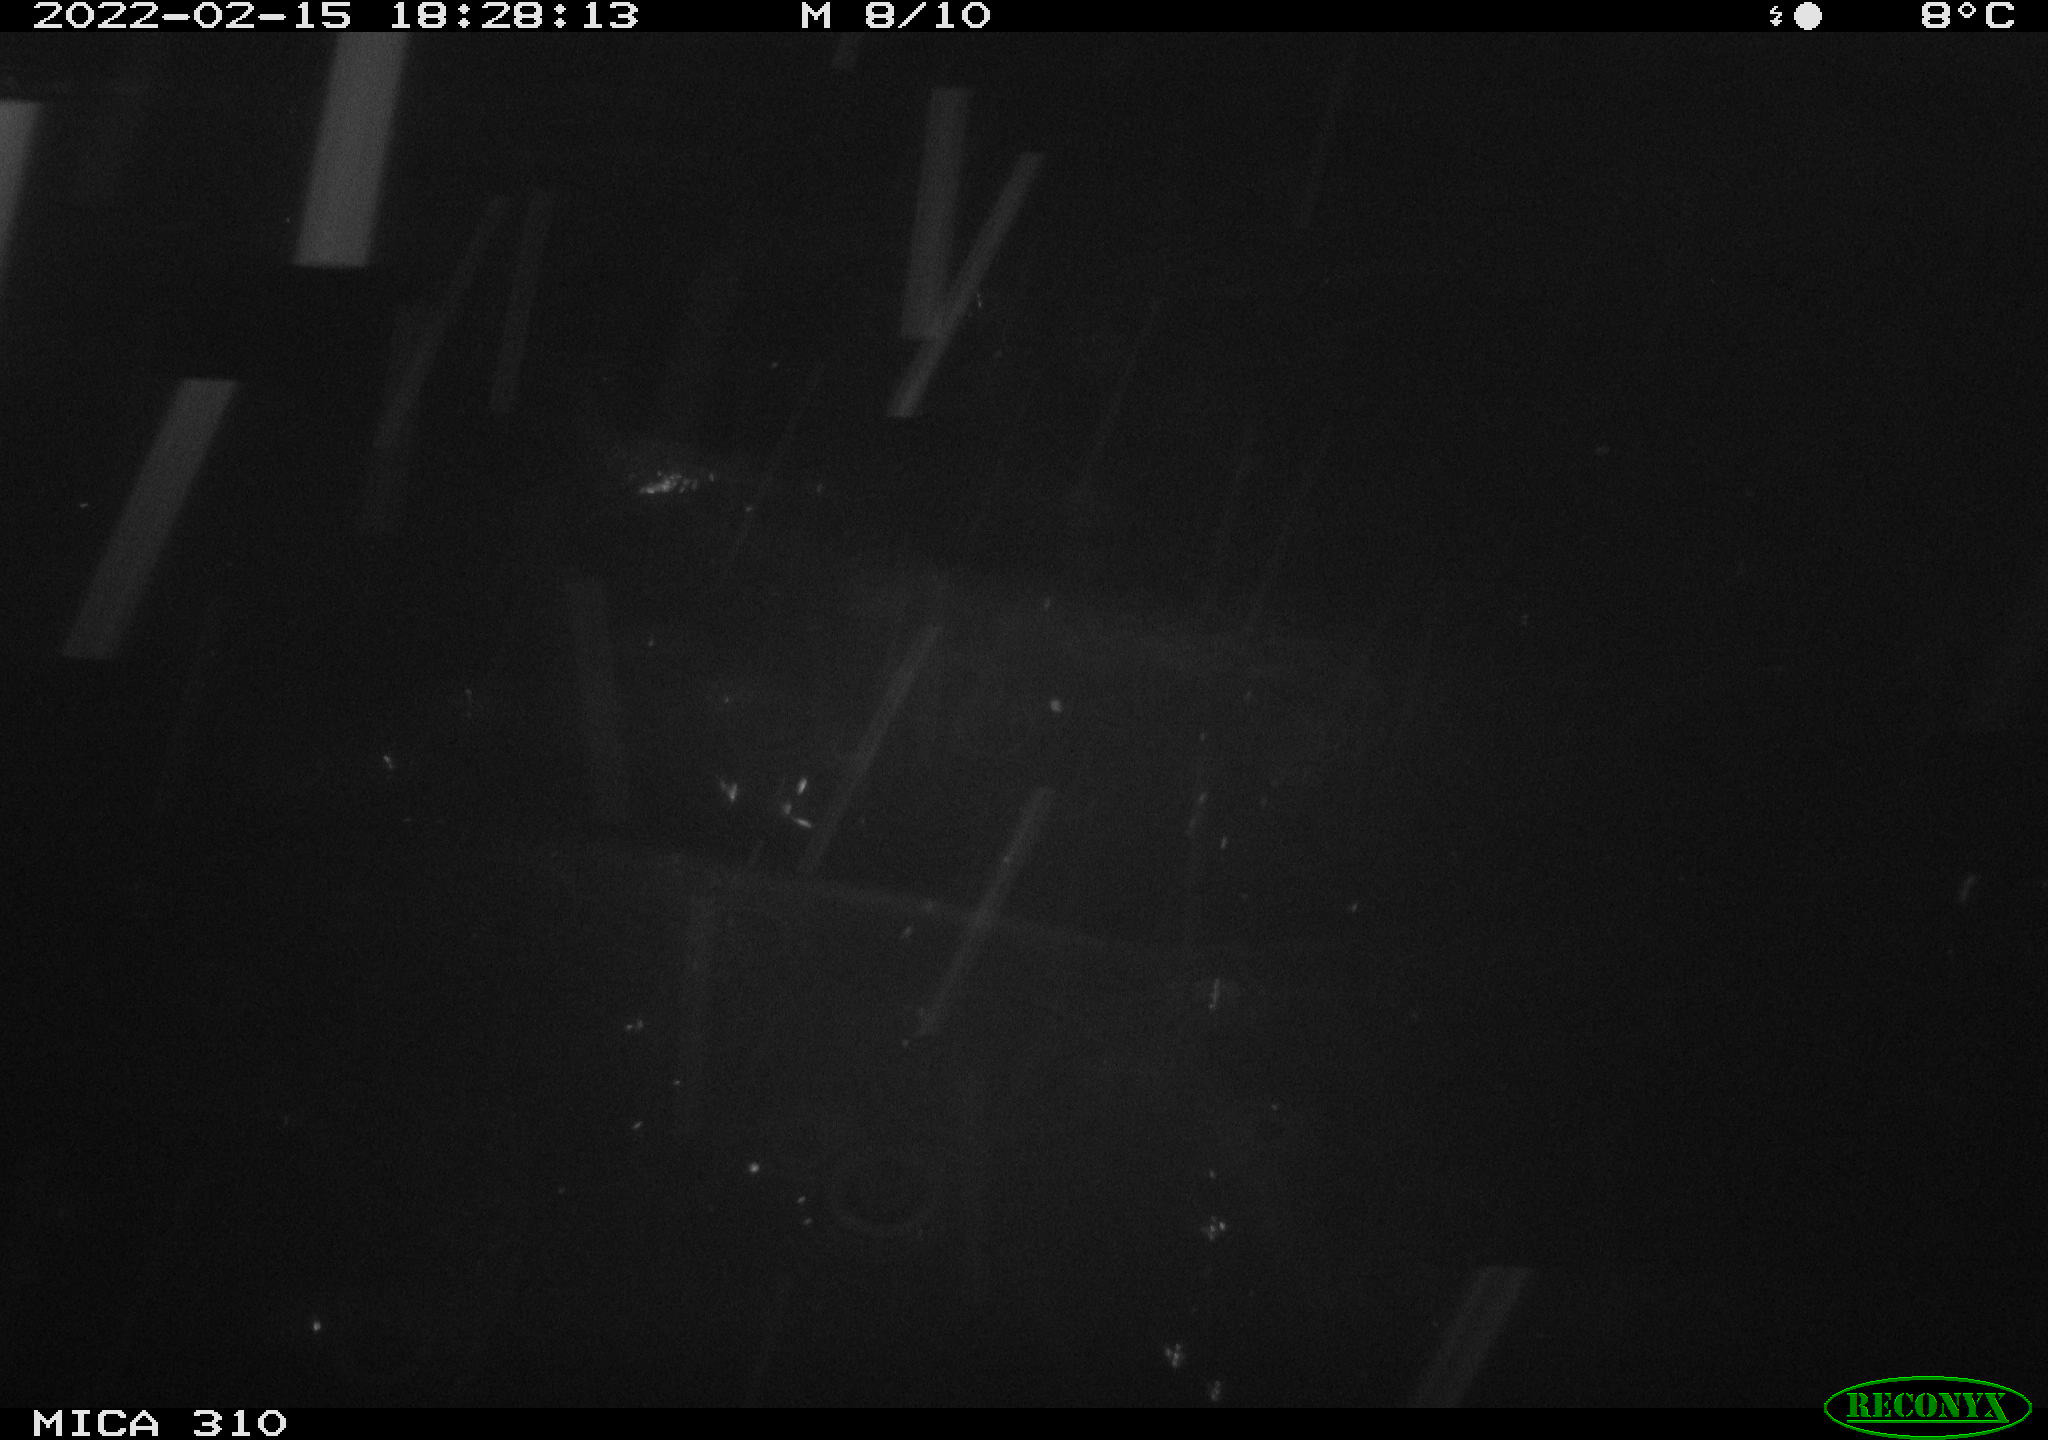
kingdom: Animalia
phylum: Chordata
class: Aves
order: Gruiformes
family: Rallidae
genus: Fulica
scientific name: Fulica atra
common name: Eurasian coot
